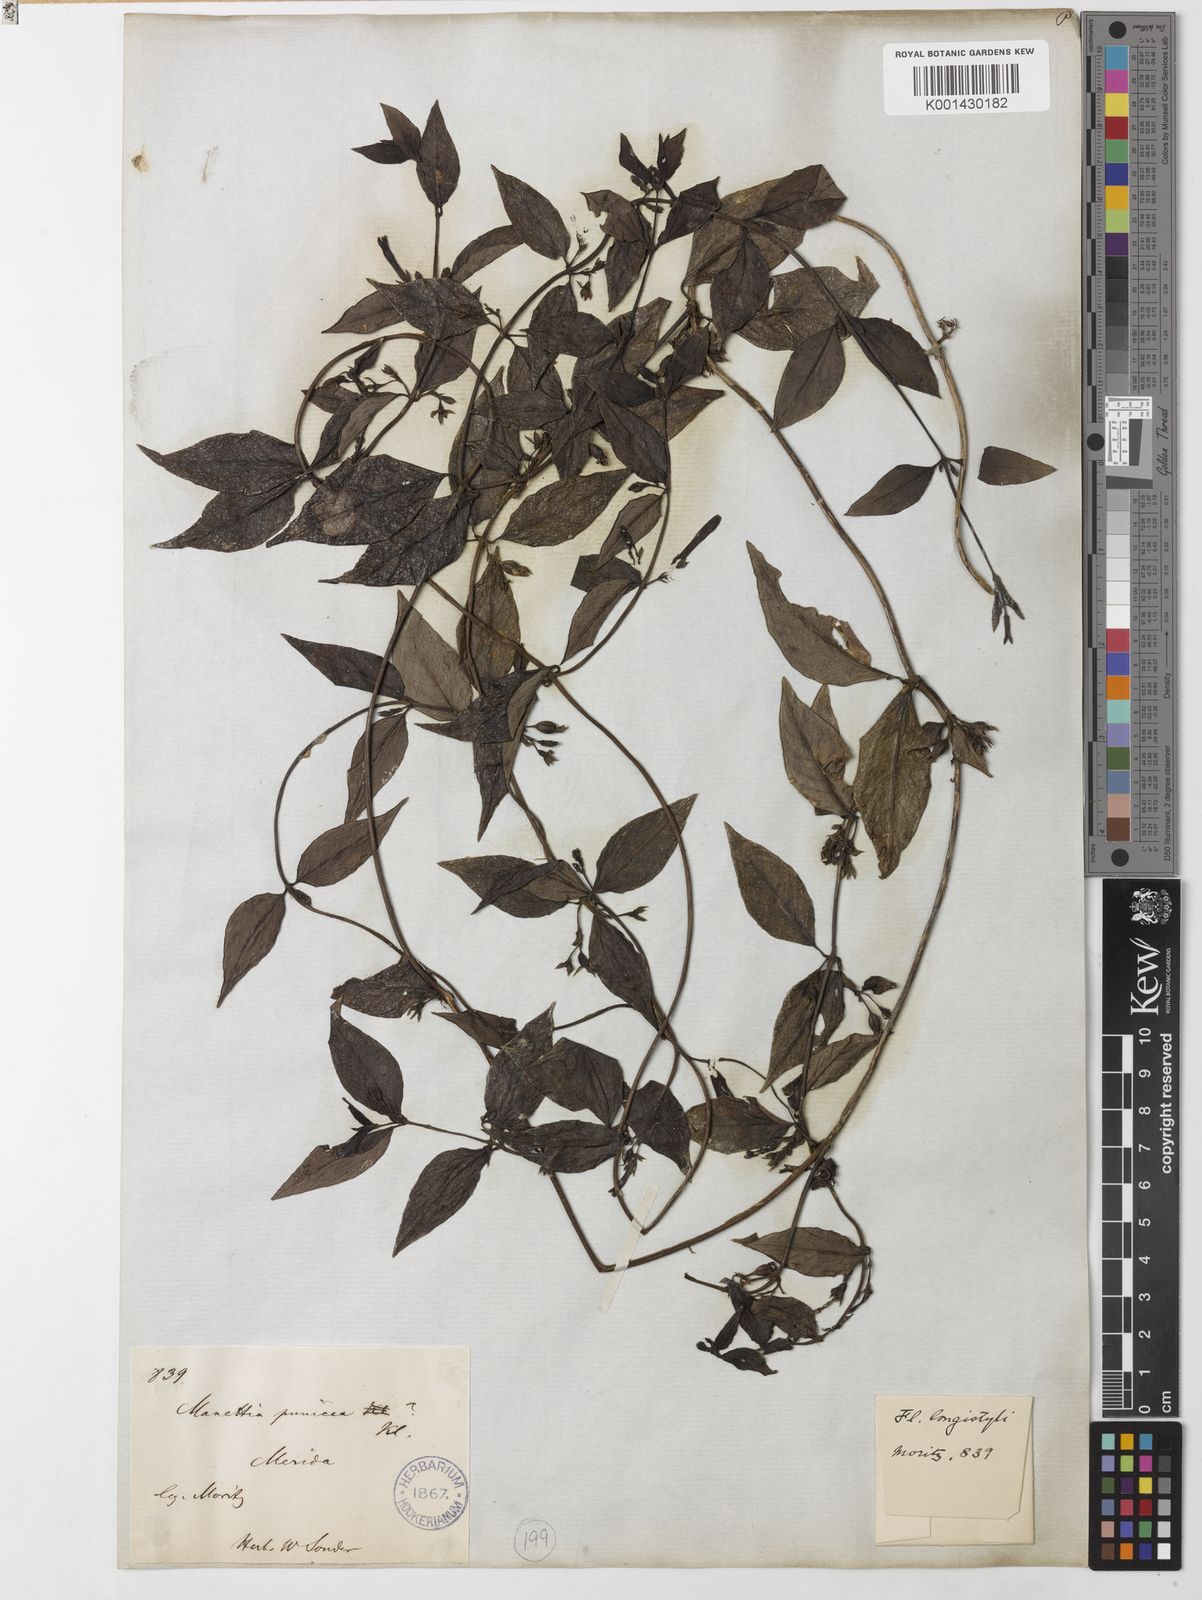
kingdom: Plantae
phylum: Tracheophyta
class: Magnoliopsida
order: Gentianales
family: Rubiaceae
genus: Manettia
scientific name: Manettia sonderiana
